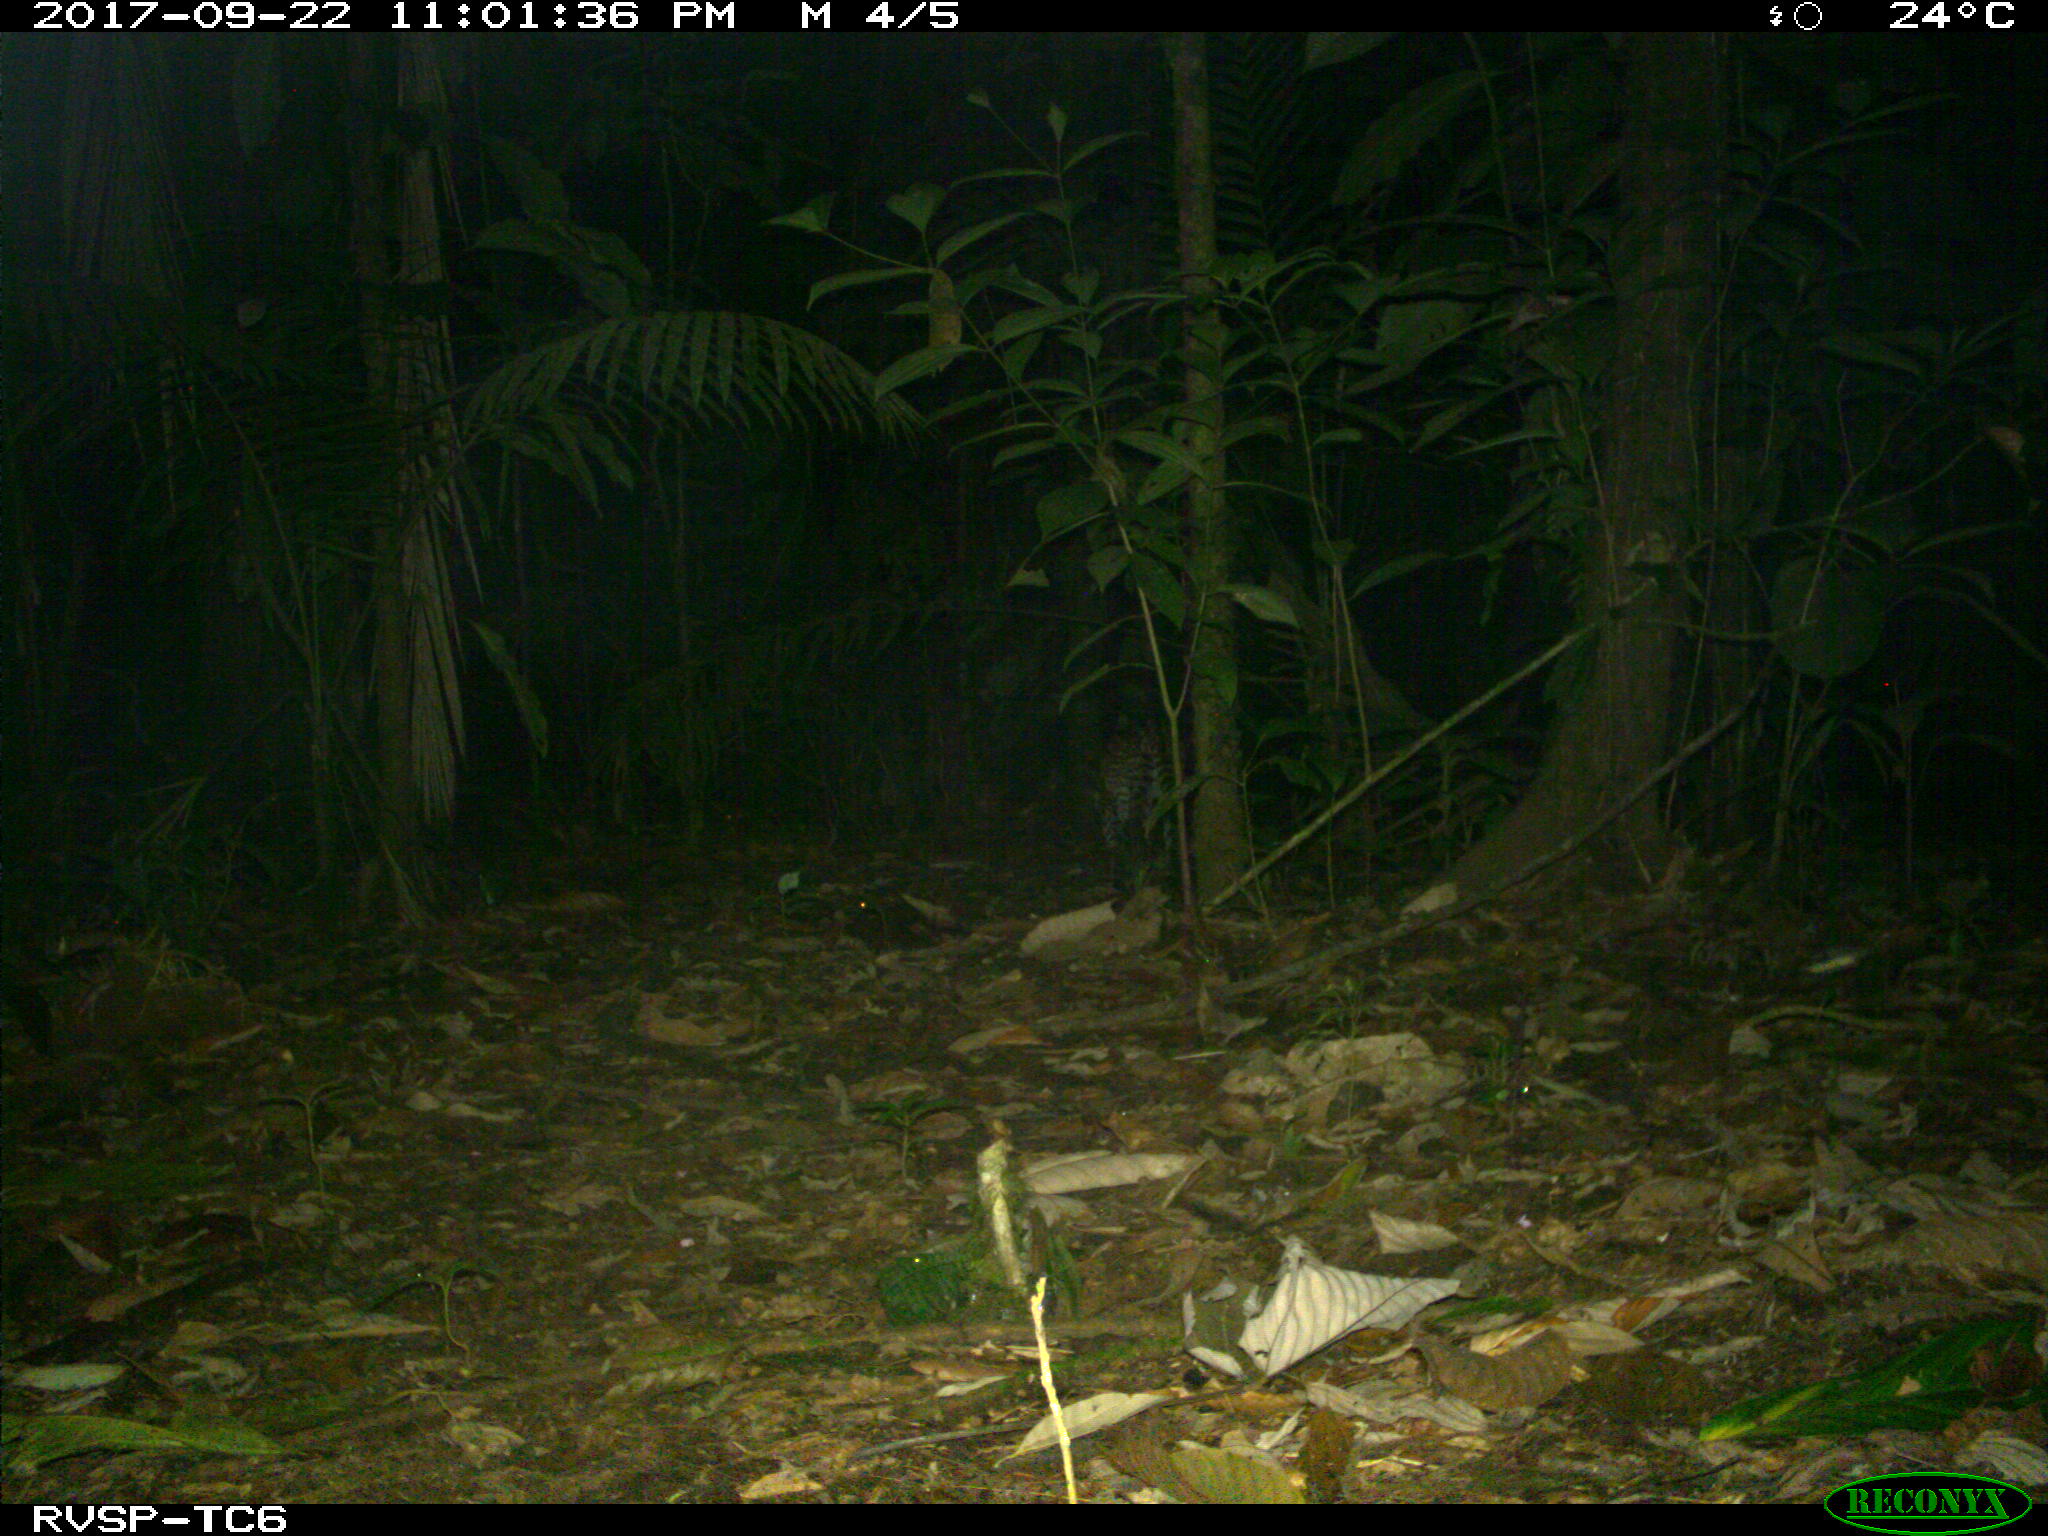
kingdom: Animalia
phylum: Chordata
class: Mammalia
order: Carnivora
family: Felidae
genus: Leopardus
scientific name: Leopardus pardalis
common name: Ocelot
